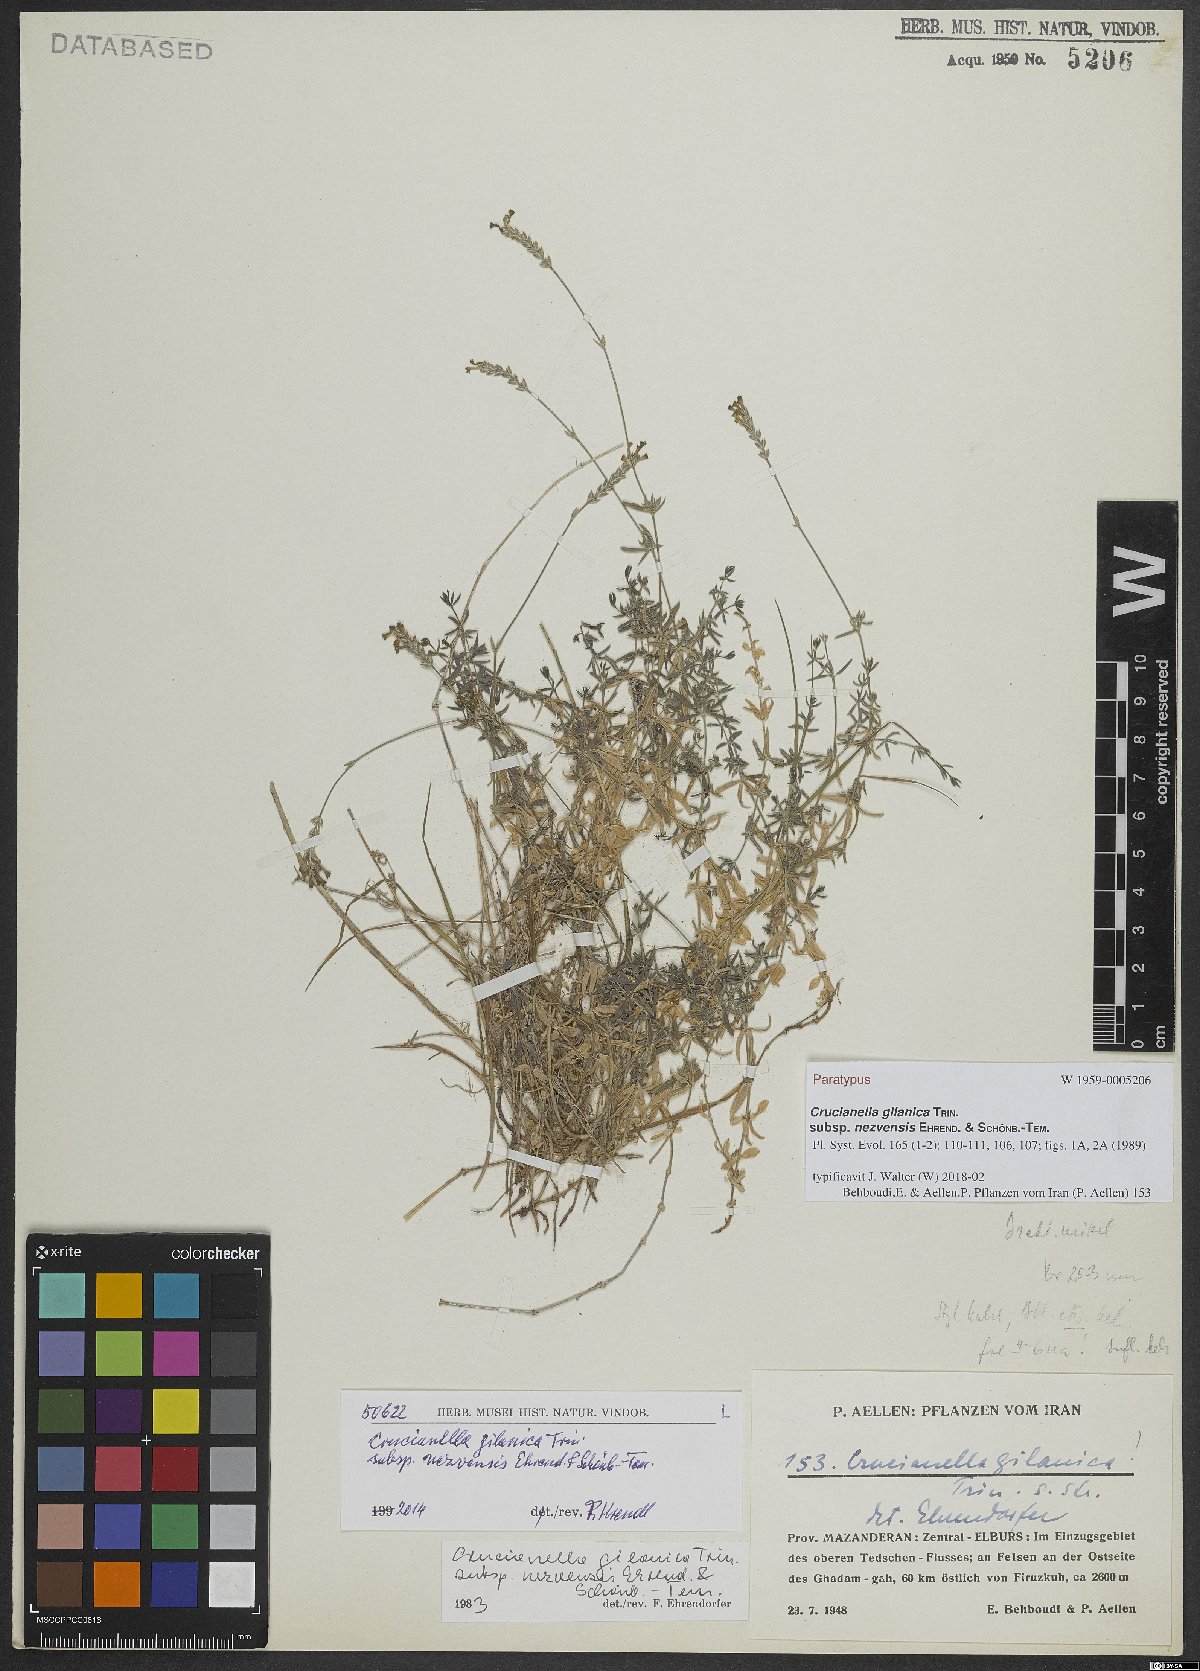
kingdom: Plantae
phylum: Tracheophyta
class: Magnoliopsida
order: Gentianales
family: Rubiaceae
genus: Crucianella
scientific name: Crucianella gilanica
